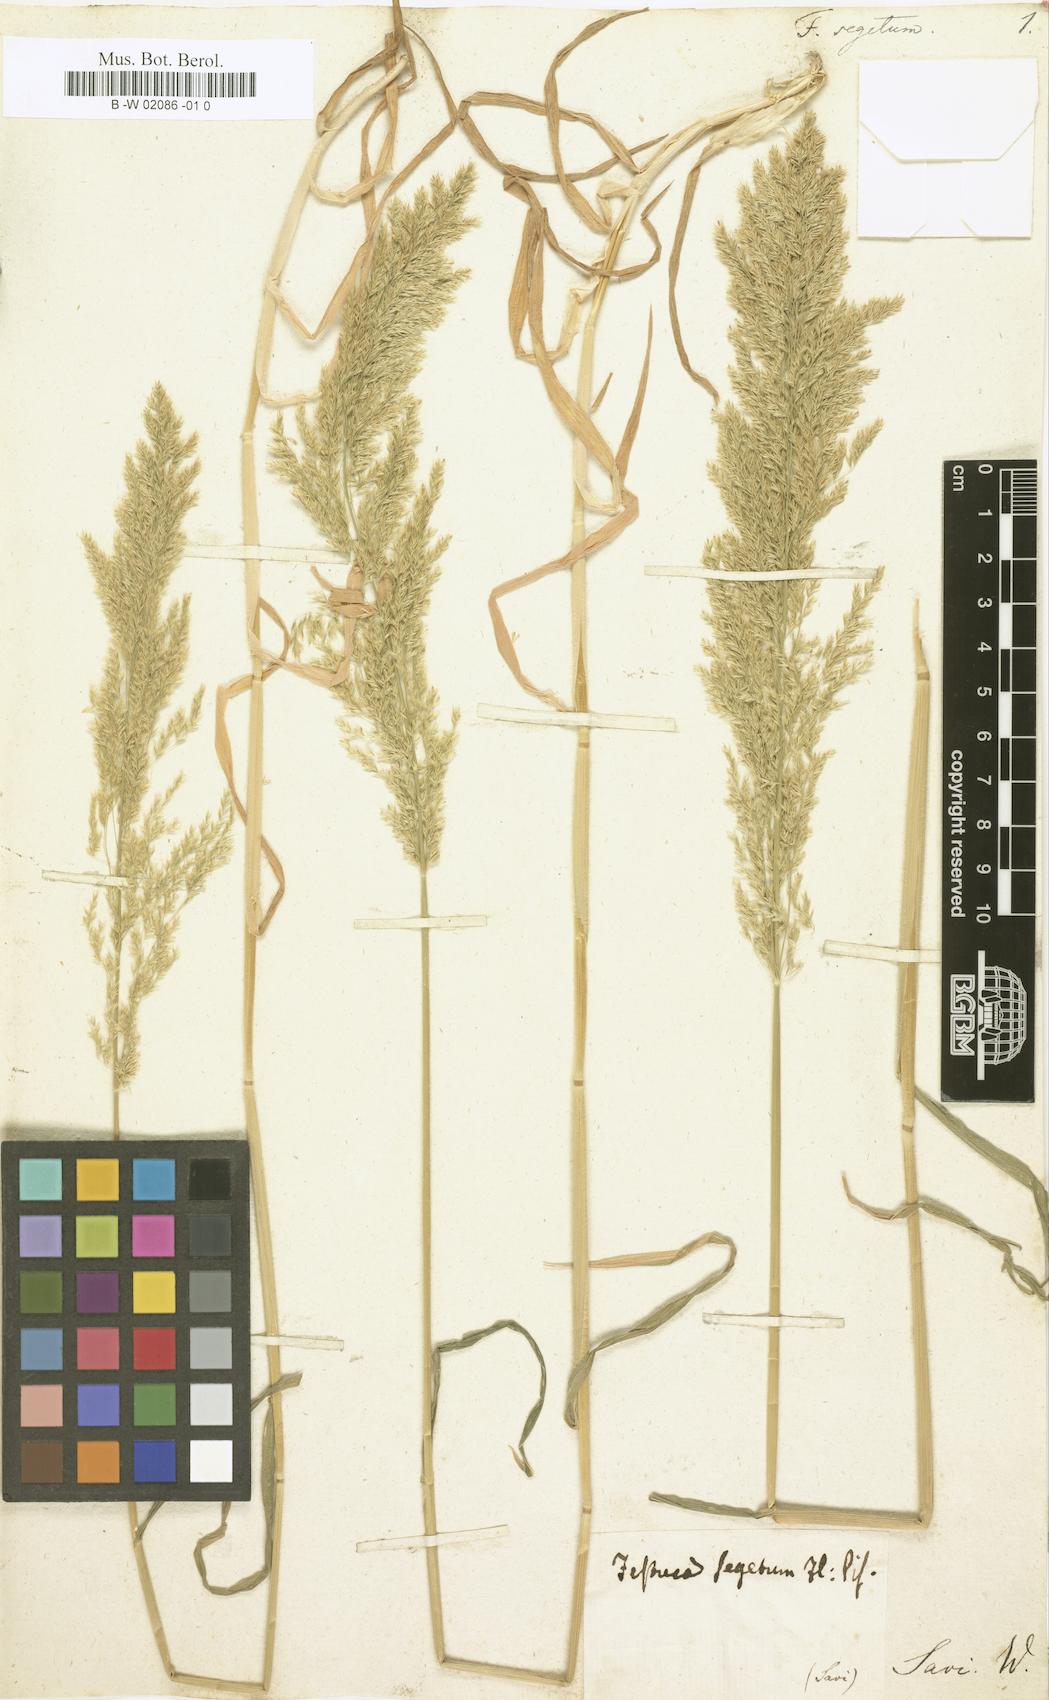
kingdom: Plantae
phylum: Tracheophyta
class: Liliopsida
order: Poales
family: Poaceae
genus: Trisetaria
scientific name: Trisetaria parviflora
